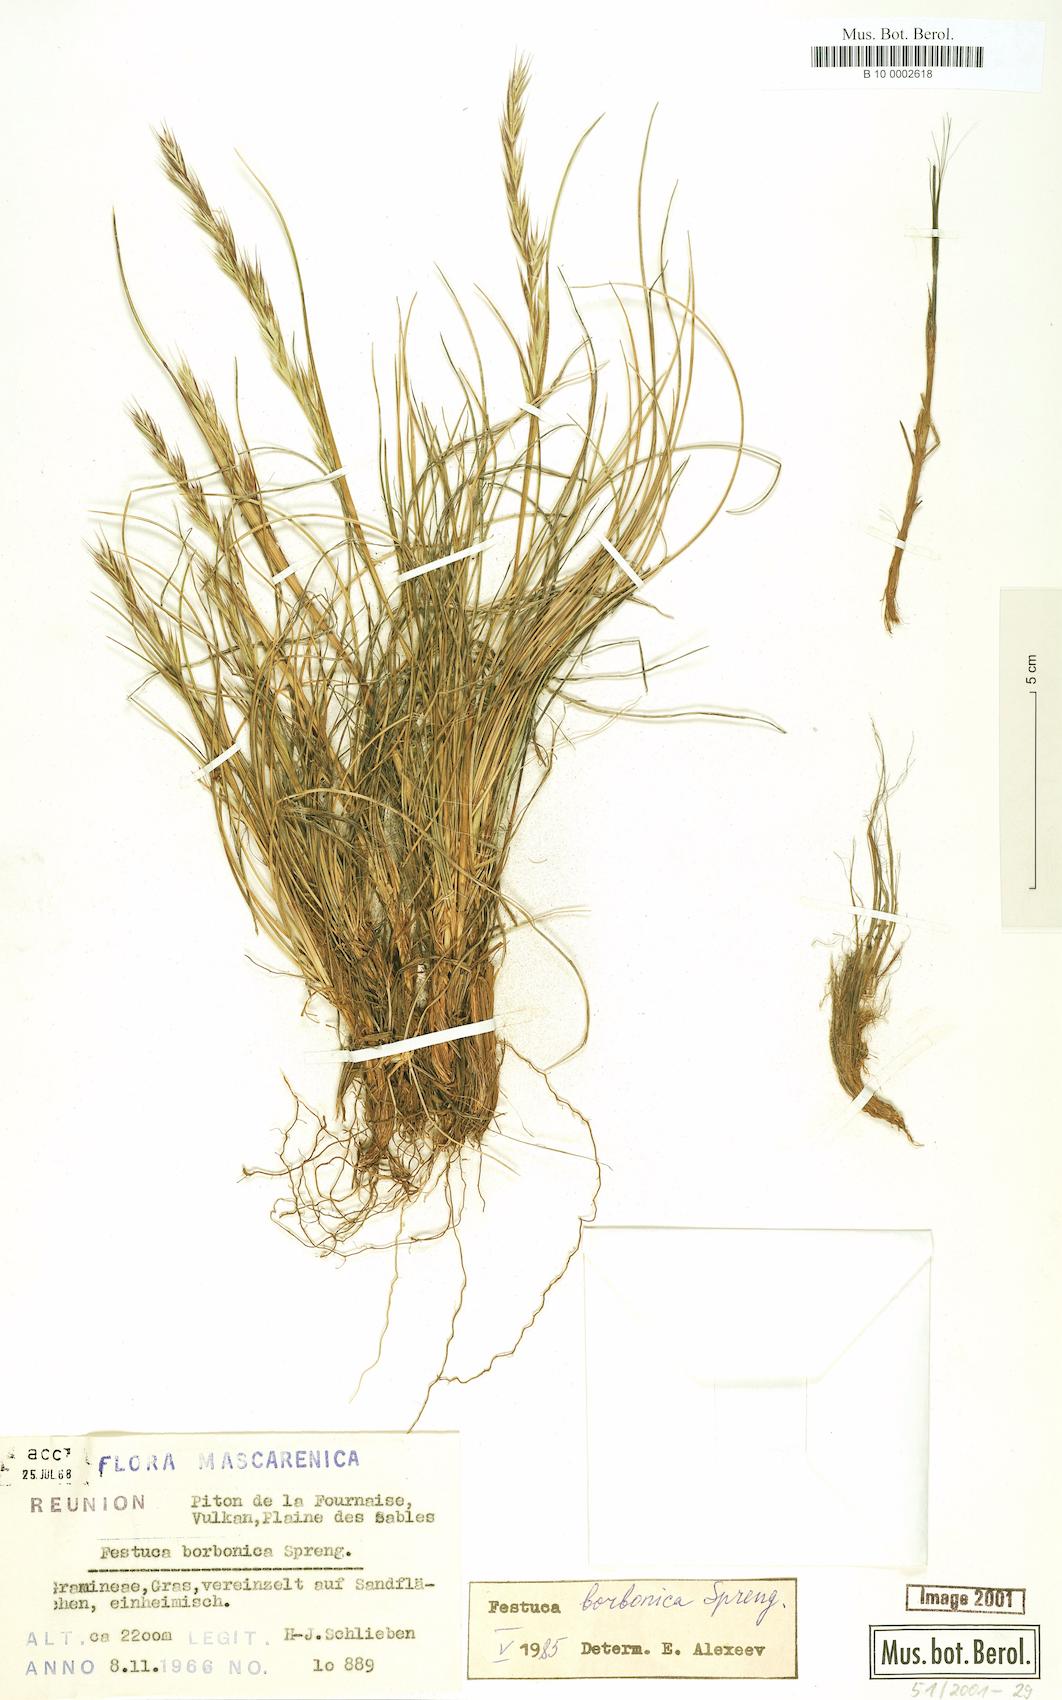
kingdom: Plantae
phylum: Tracheophyta
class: Liliopsida
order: Poales
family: Poaceae
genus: Festuca
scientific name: Festuca borbonica
